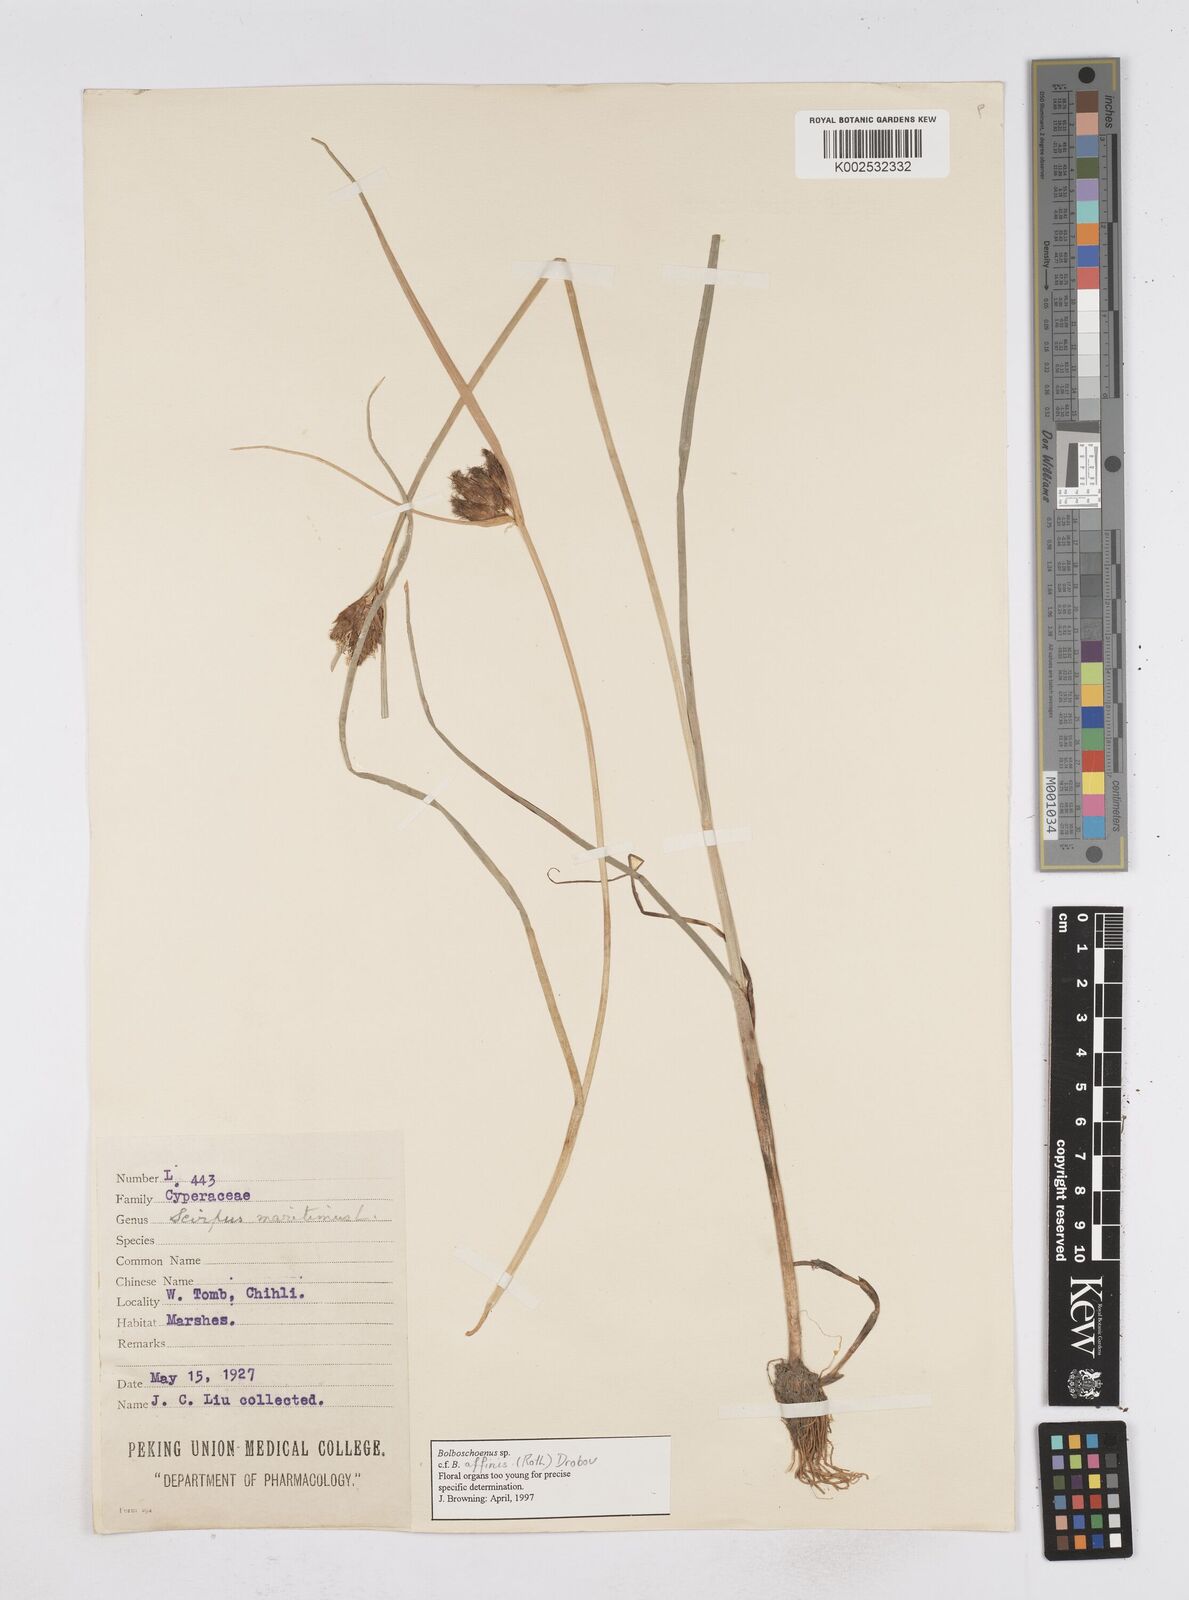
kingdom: Plantae
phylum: Tracheophyta
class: Liliopsida
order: Poales
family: Cyperaceae
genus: Bolboschoenus
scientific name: Bolboschoenus maritimus
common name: Sea club-rush
